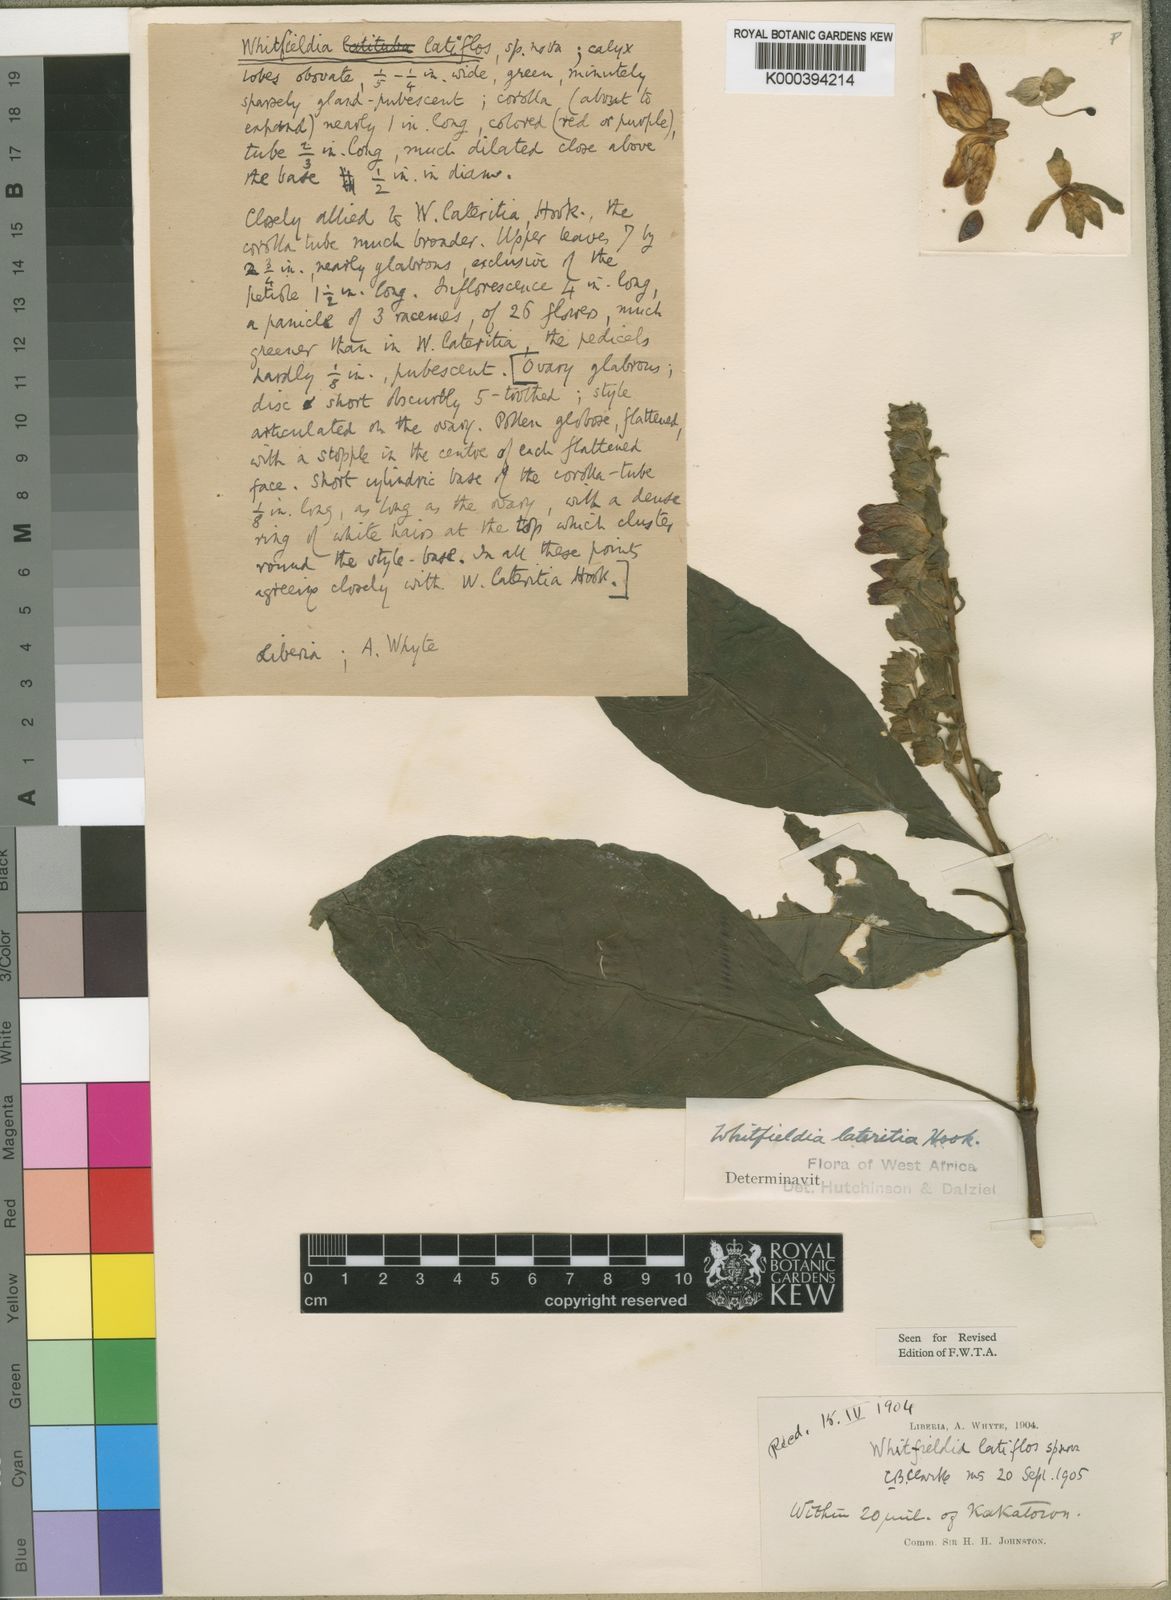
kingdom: Plantae
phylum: Tracheophyta
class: Magnoliopsida
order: Lamiales
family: Acanthaceae
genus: Whitfieldia
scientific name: Whitfieldia latiflos
